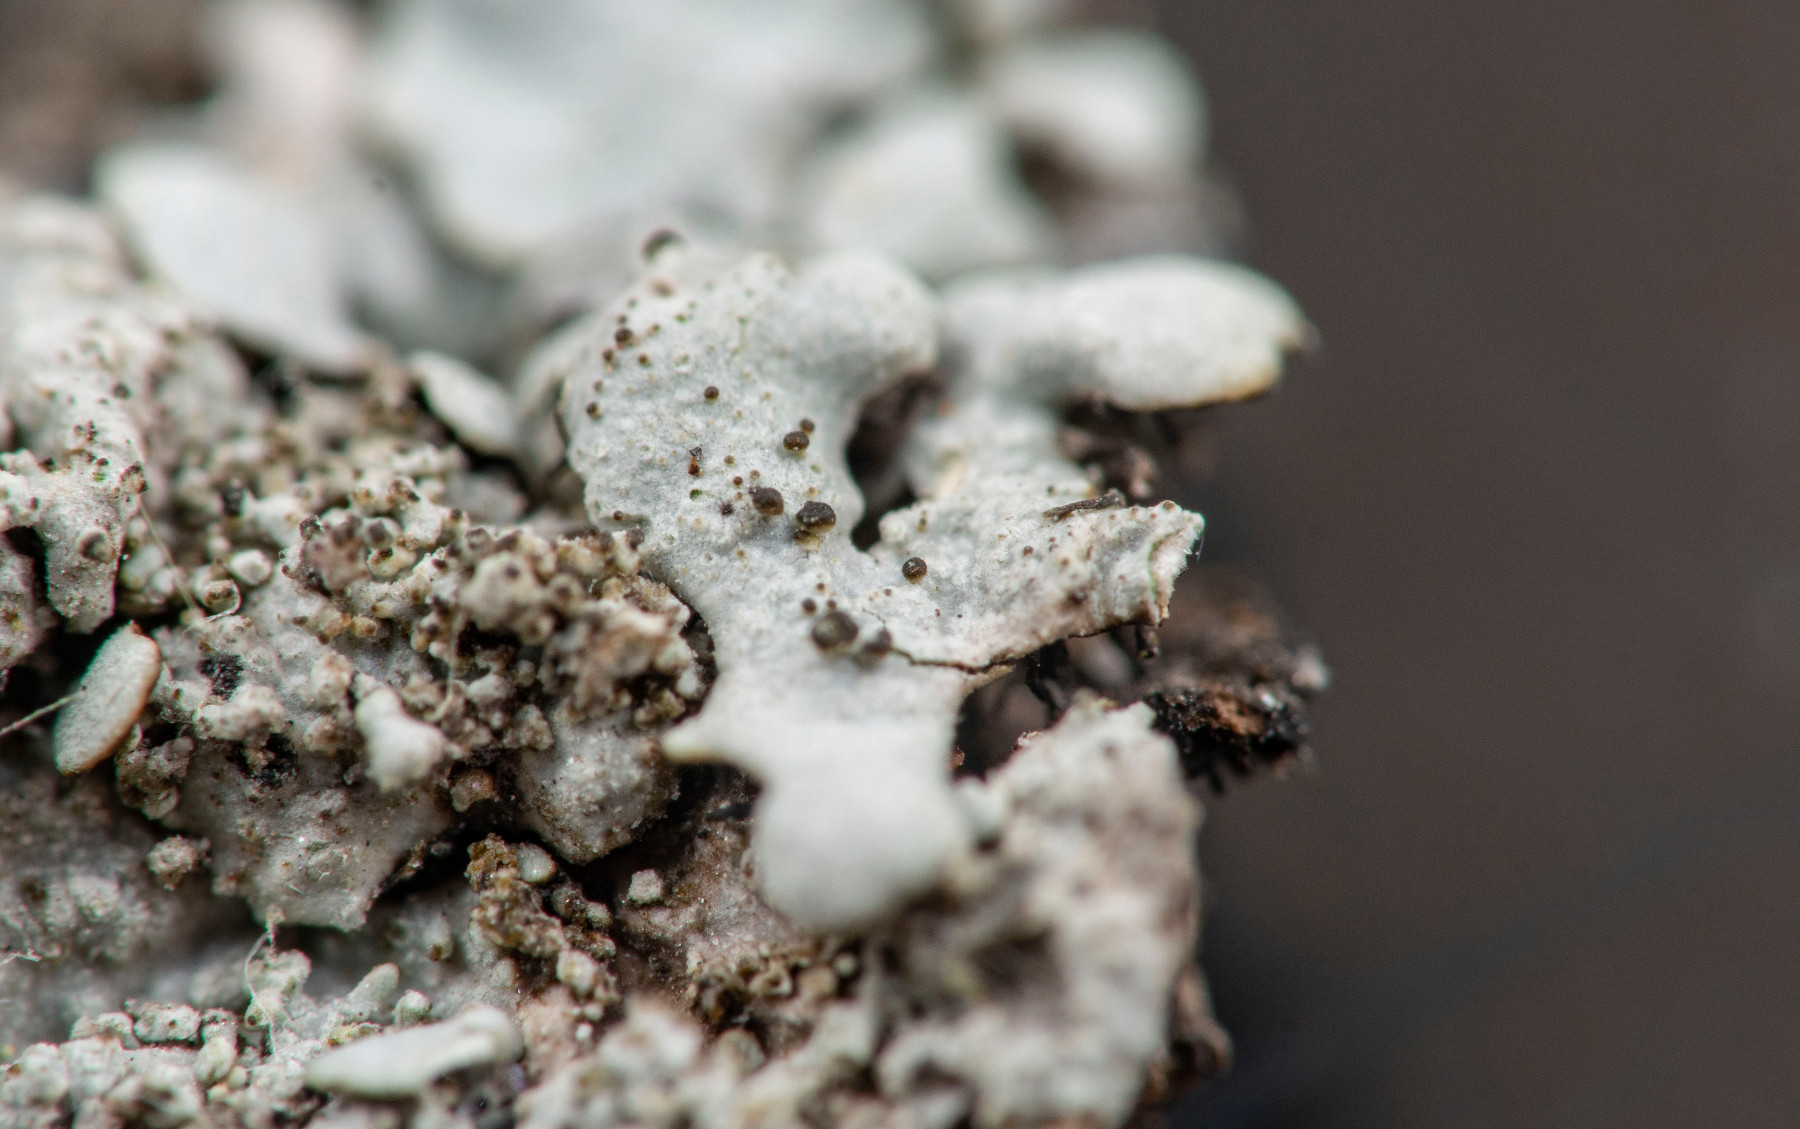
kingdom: Fungi
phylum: Ascomycota
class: Lecanoromycetes
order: Lecanorales
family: Parmeliaceae
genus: Parmelina
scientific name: Parmelina pastillifera
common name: pastil-skållav
